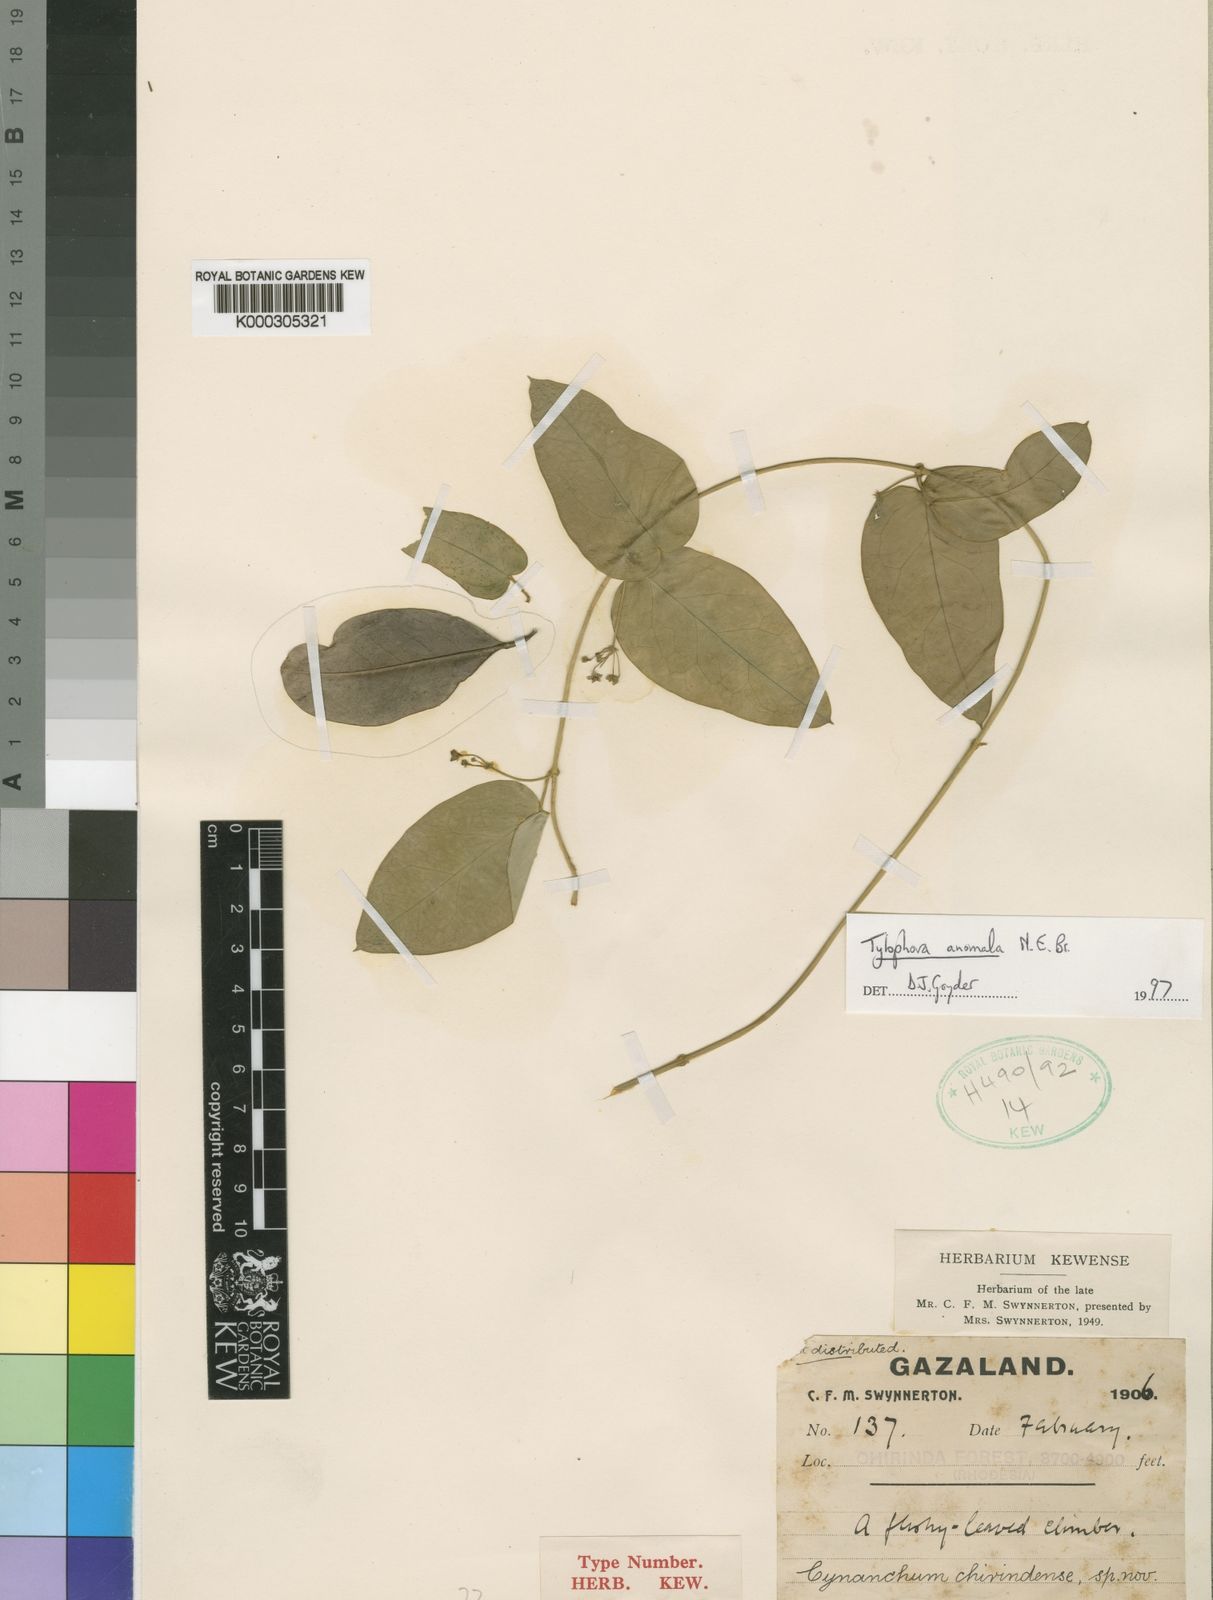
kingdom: Plantae
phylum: Tracheophyta
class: Magnoliopsida
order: Gentianales
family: Apocynaceae
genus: Vincetoxicum
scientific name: Vincetoxicum anomalum
